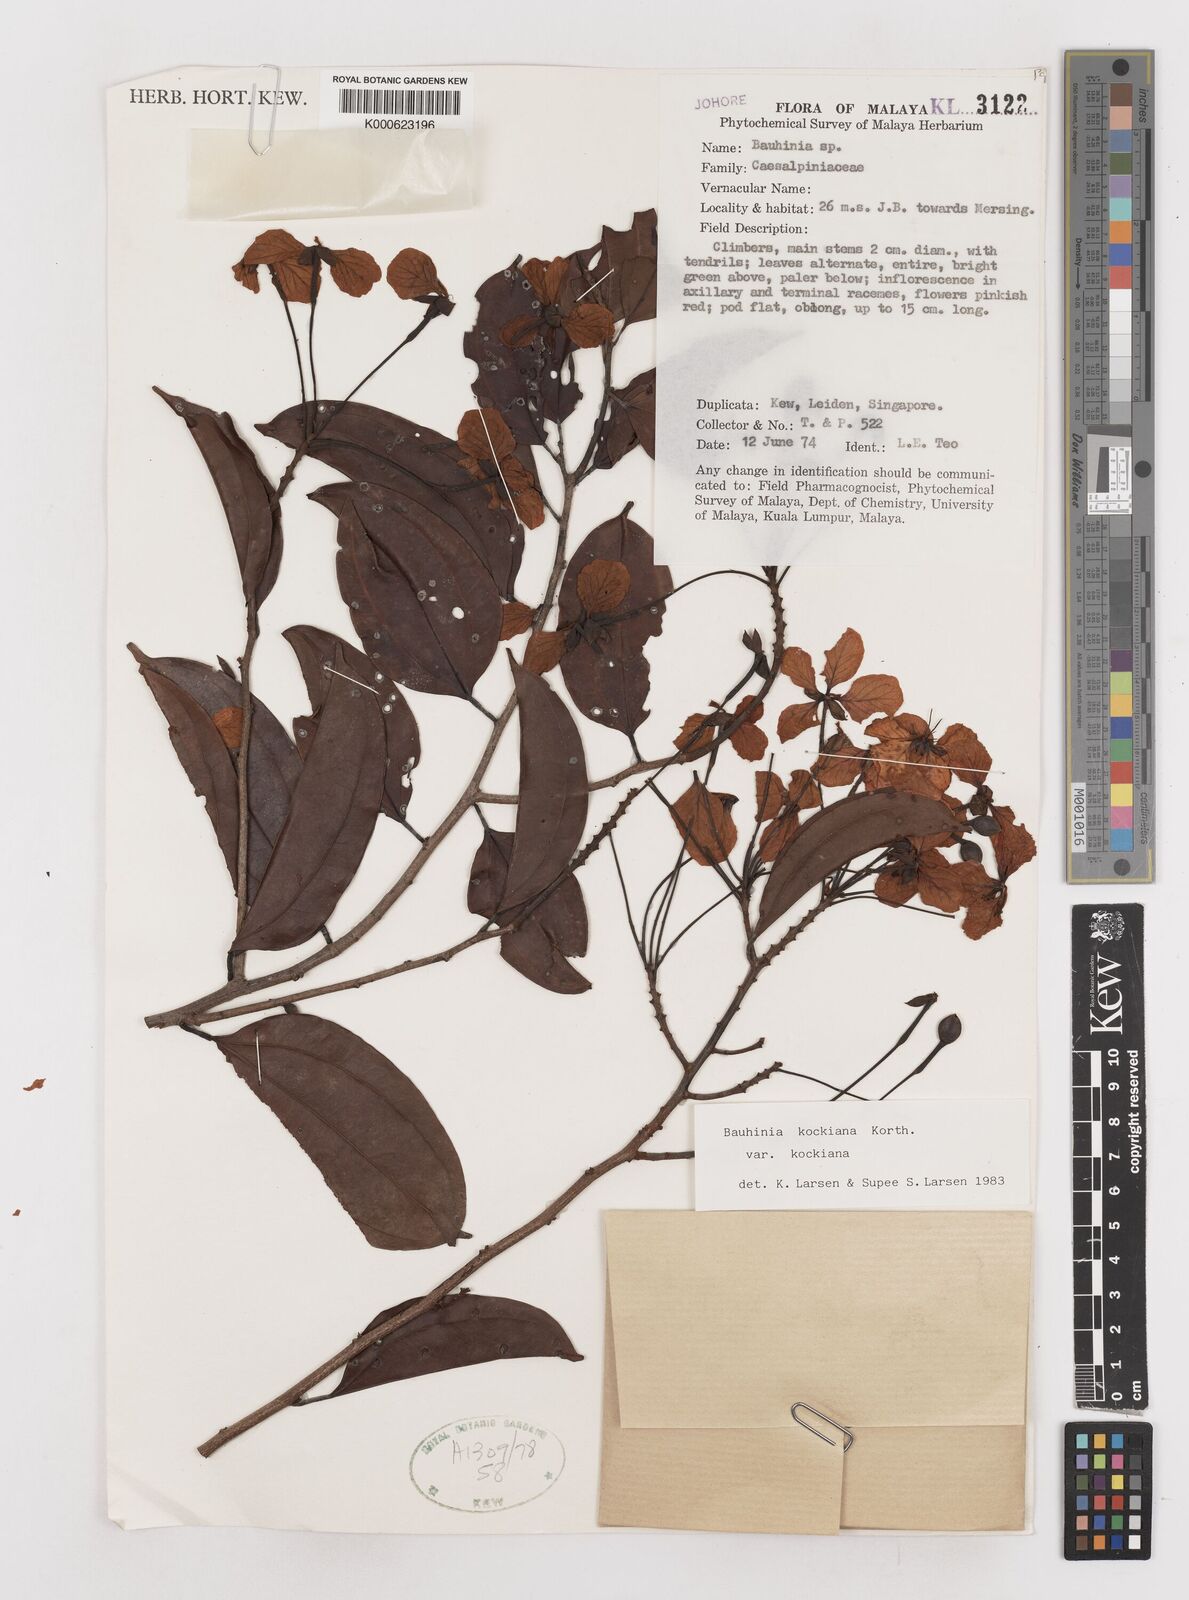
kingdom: Plantae
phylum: Tracheophyta
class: Magnoliopsida
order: Fabales
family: Fabaceae
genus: Bauhinia
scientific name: Bauhinia
